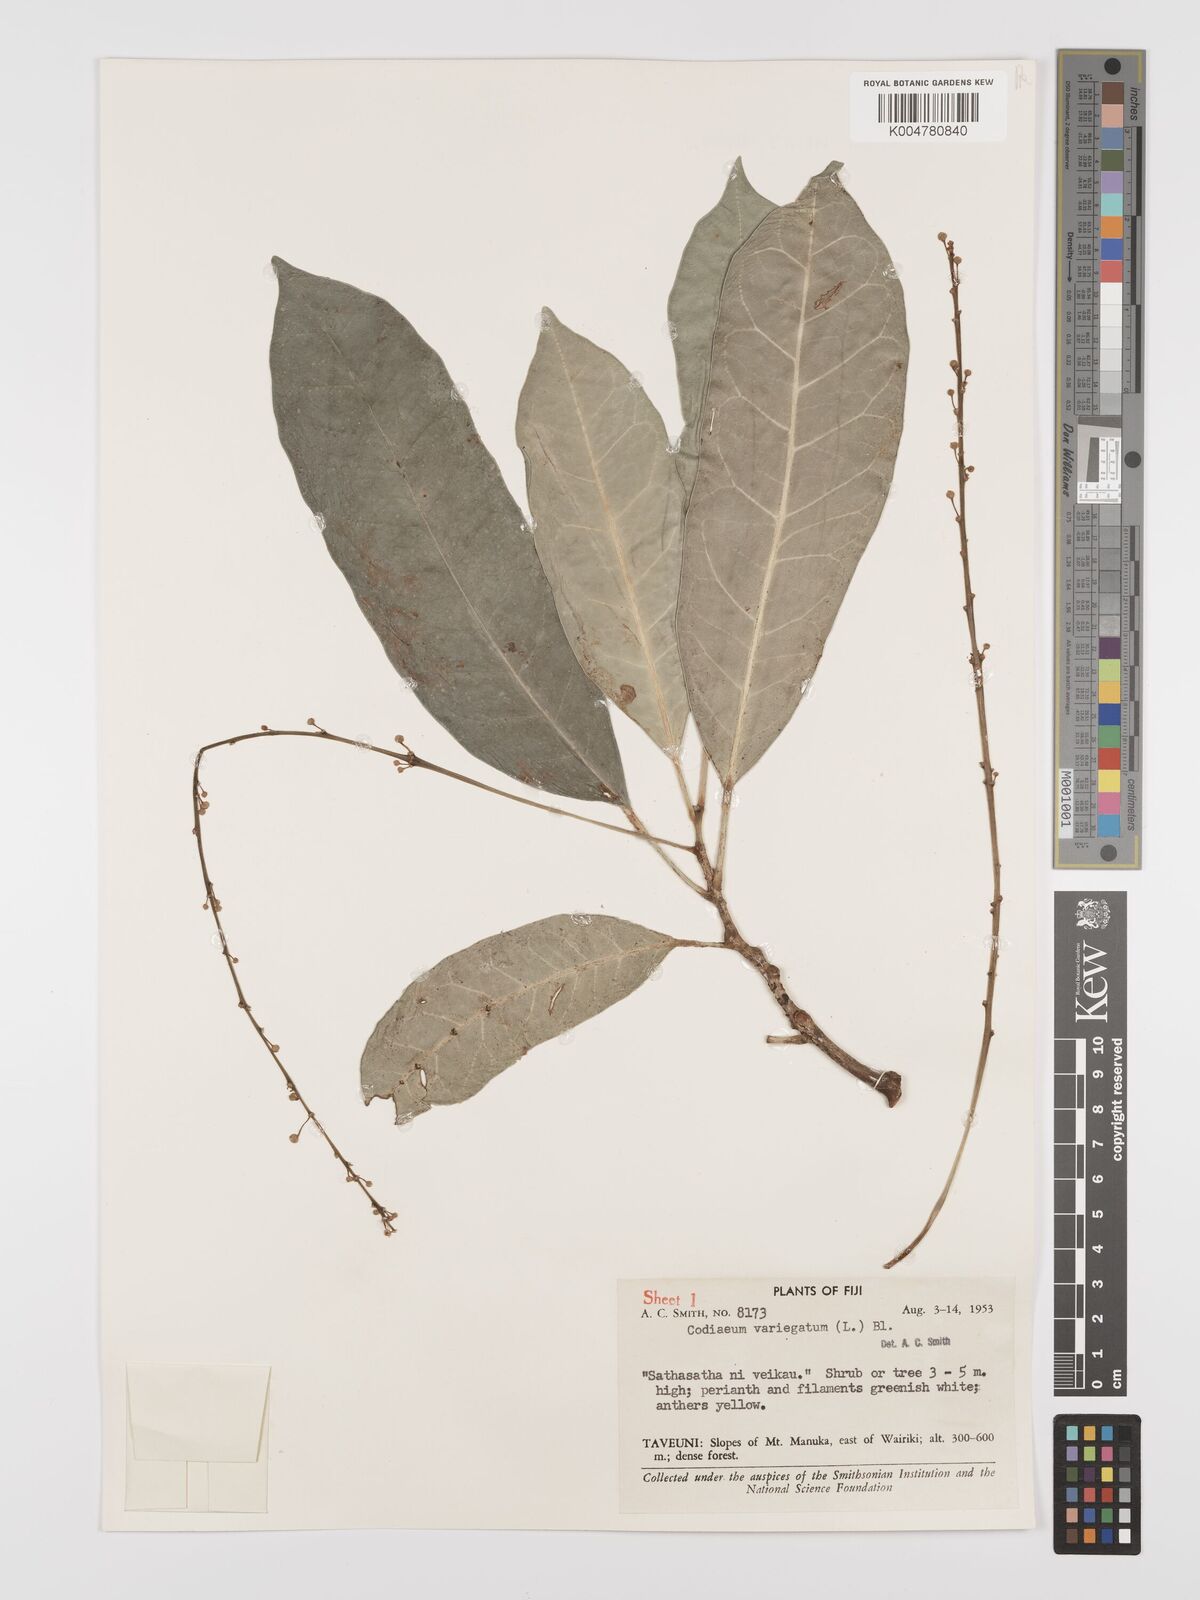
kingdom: Plantae
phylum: Tracheophyta
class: Magnoliopsida
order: Malpighiales
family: Euphorbiaceae
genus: Codiaeum
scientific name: Codiaeum variegatum
